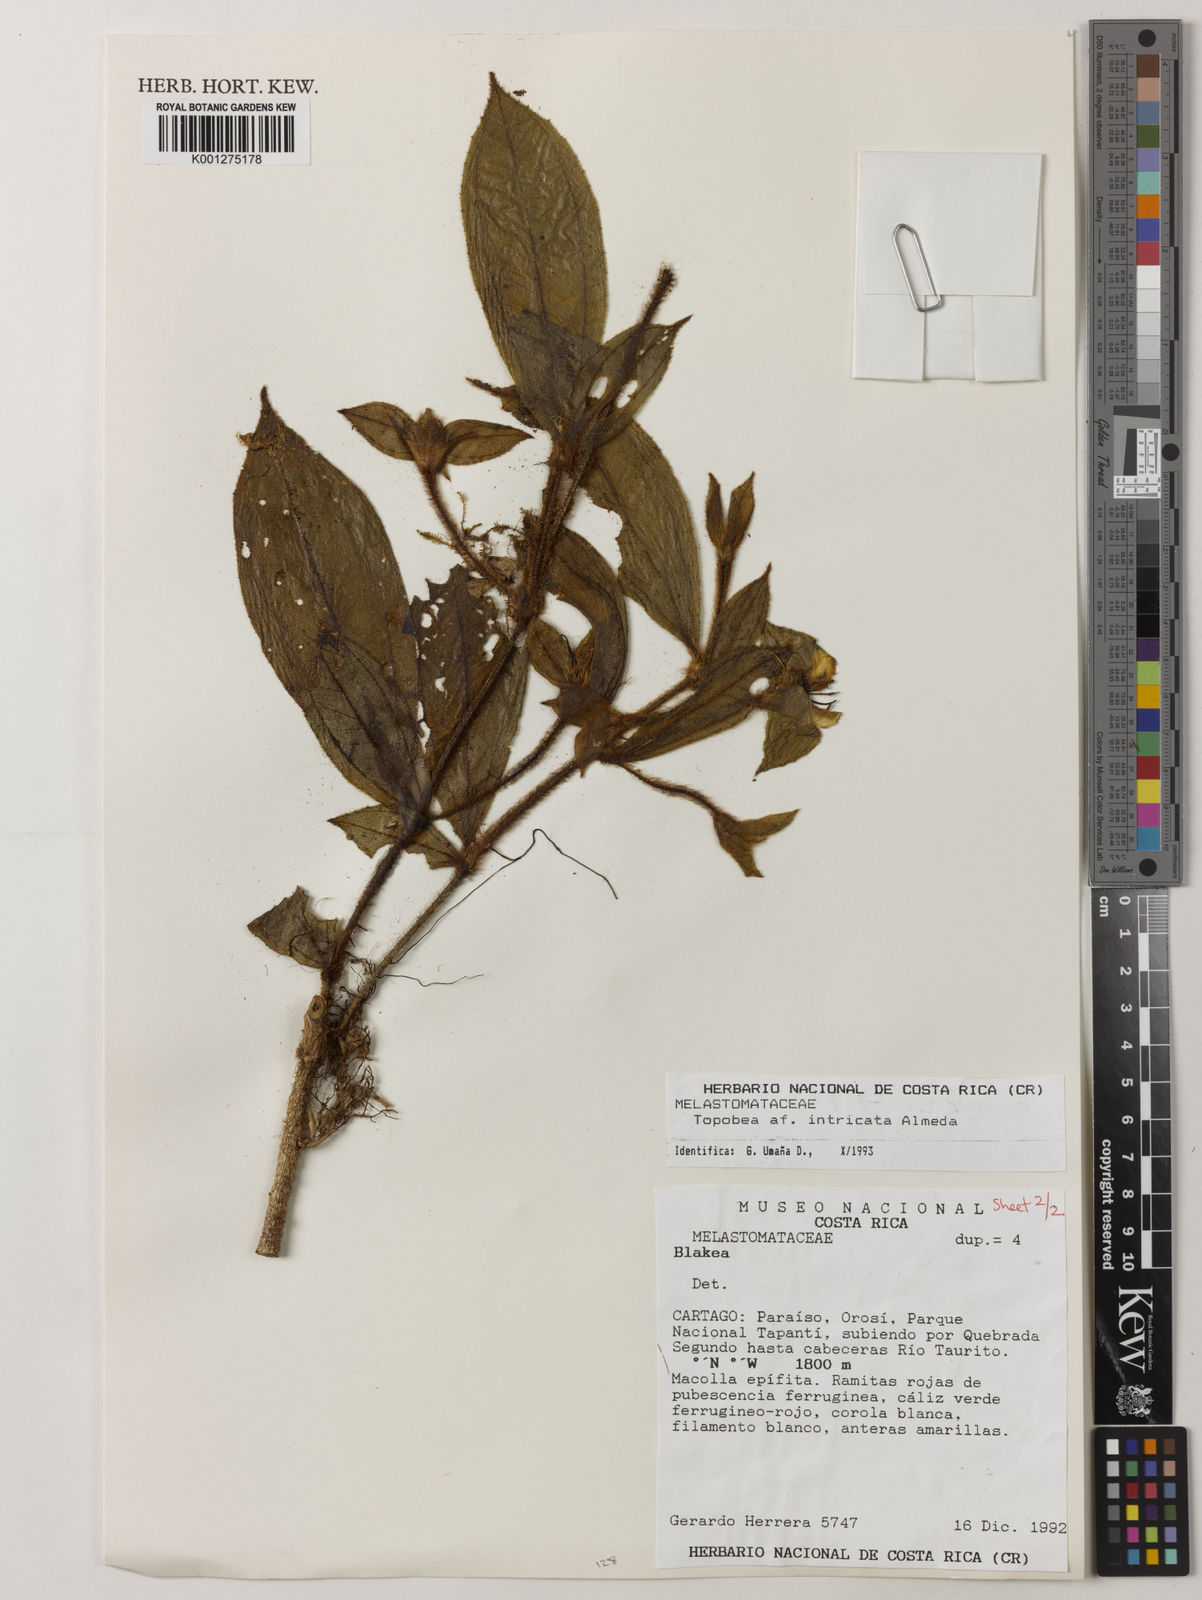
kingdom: Plantae
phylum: Tracheophyta
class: Magnoliopsida
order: Myrtales
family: Melastomataceae
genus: Blakea
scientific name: Blakea intricata
